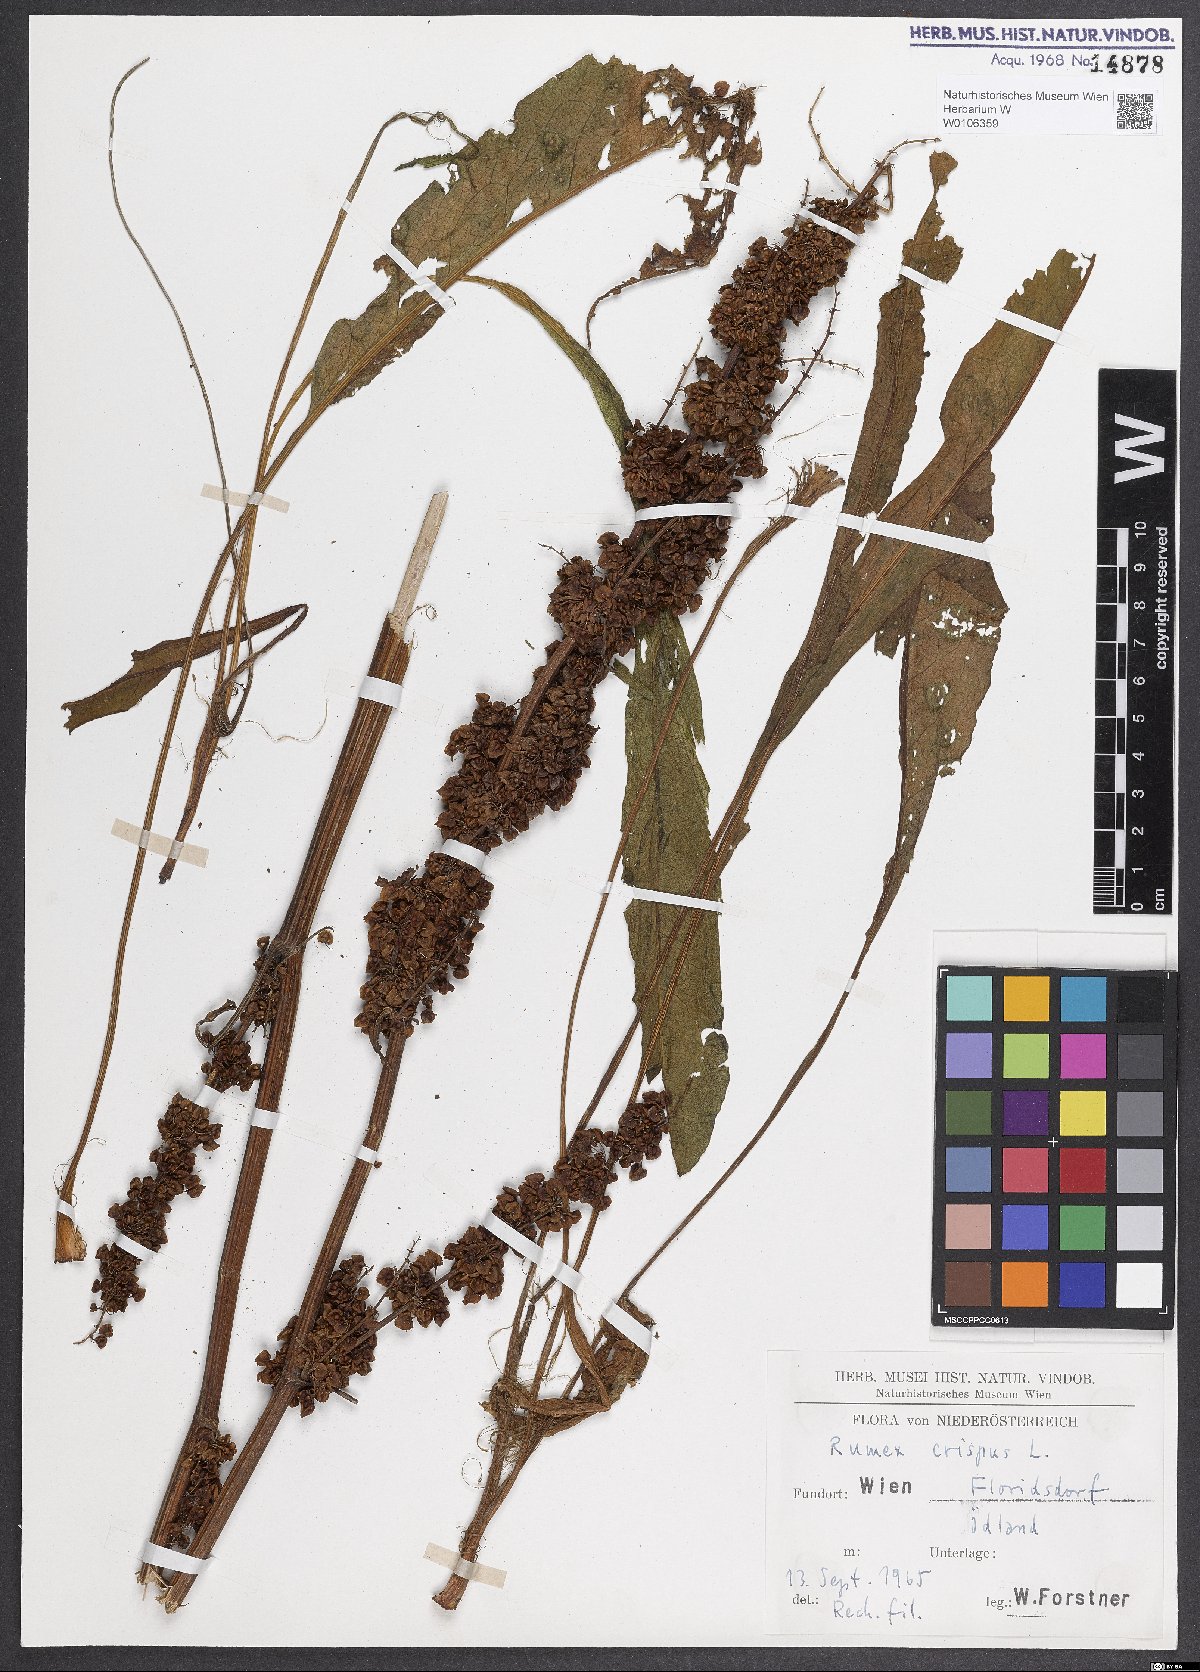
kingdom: Plantae
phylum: Tracheophyta
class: Magnoliopsida
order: Caryophyllales
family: Polygonaceae
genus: Rumex
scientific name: Rumex crispus
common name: Curled dock
